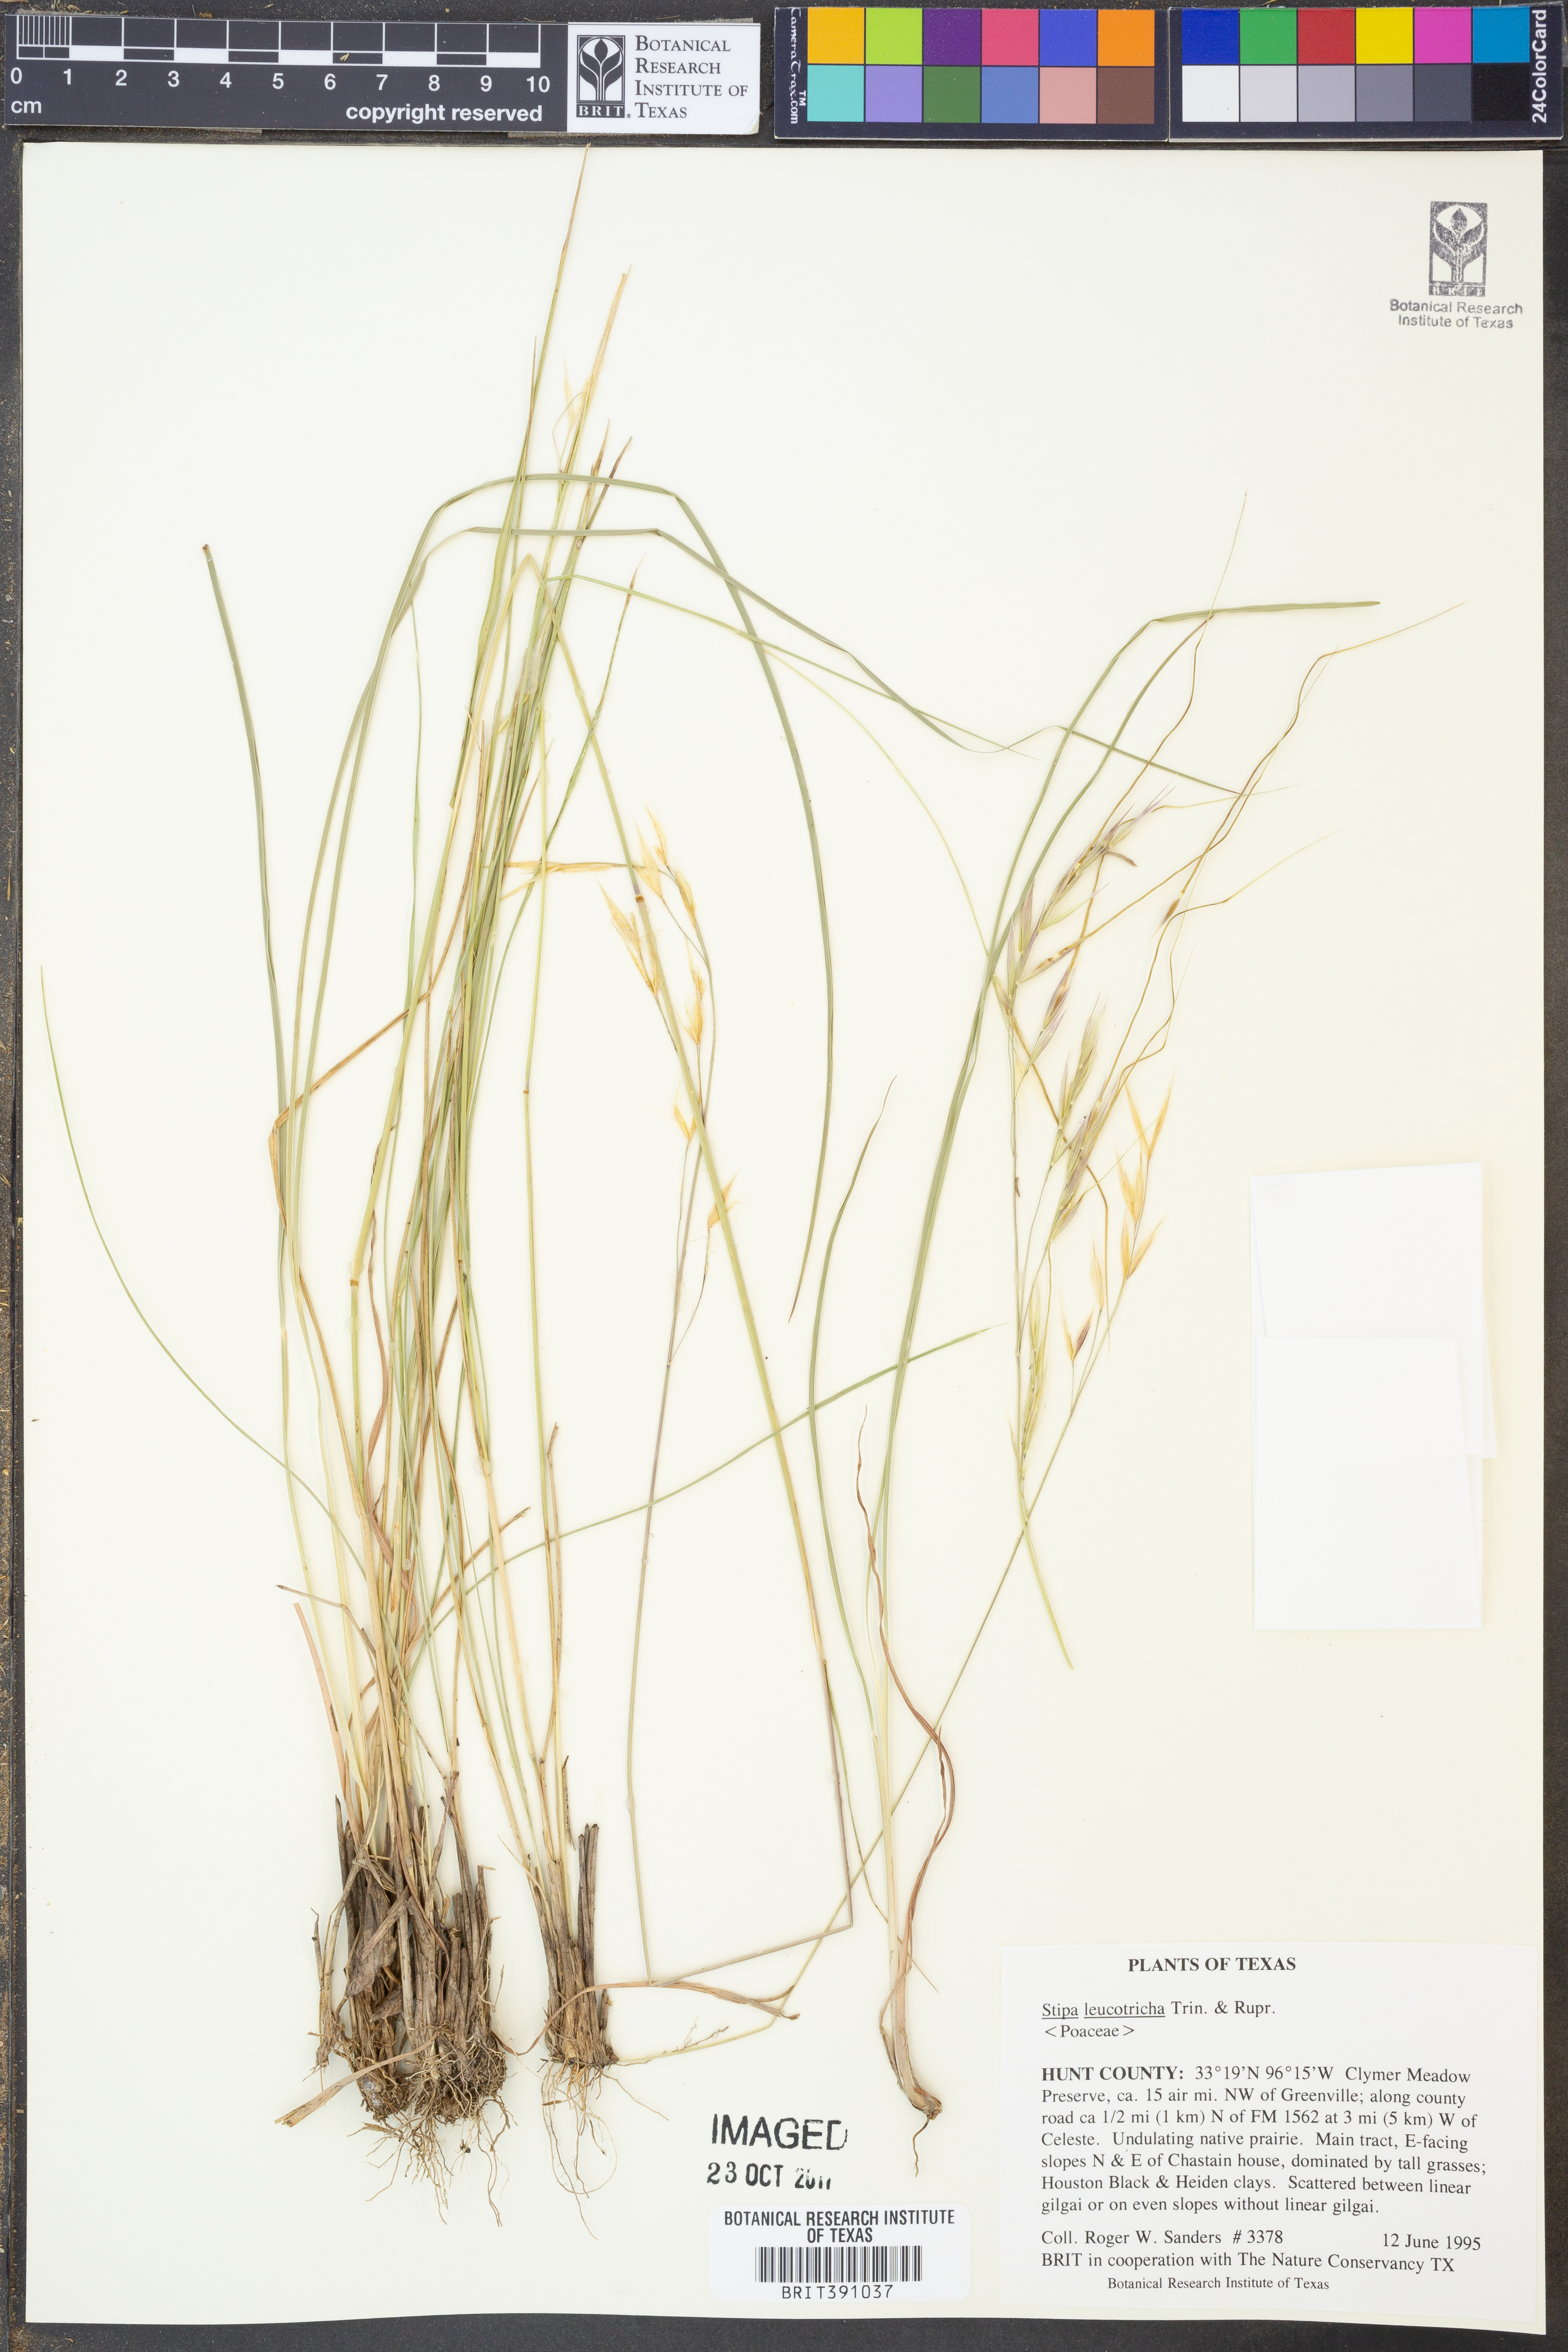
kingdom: Plantae
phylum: Tracheophyta
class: Liliopsida
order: Poales
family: Poaceae
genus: Nassella
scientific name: Nassella leucotricha
